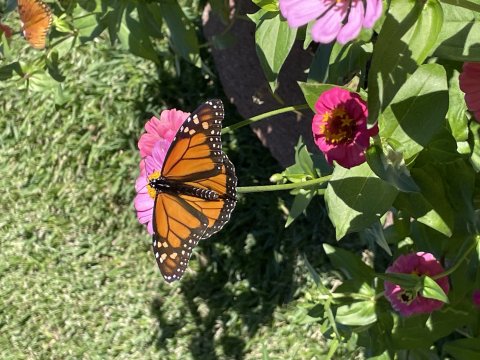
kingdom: Animalia
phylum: Arthropoda
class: Insecta
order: Lepidoptera
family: Nymphalidae
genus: Danaus
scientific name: Danaus plexippus
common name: Monarch
